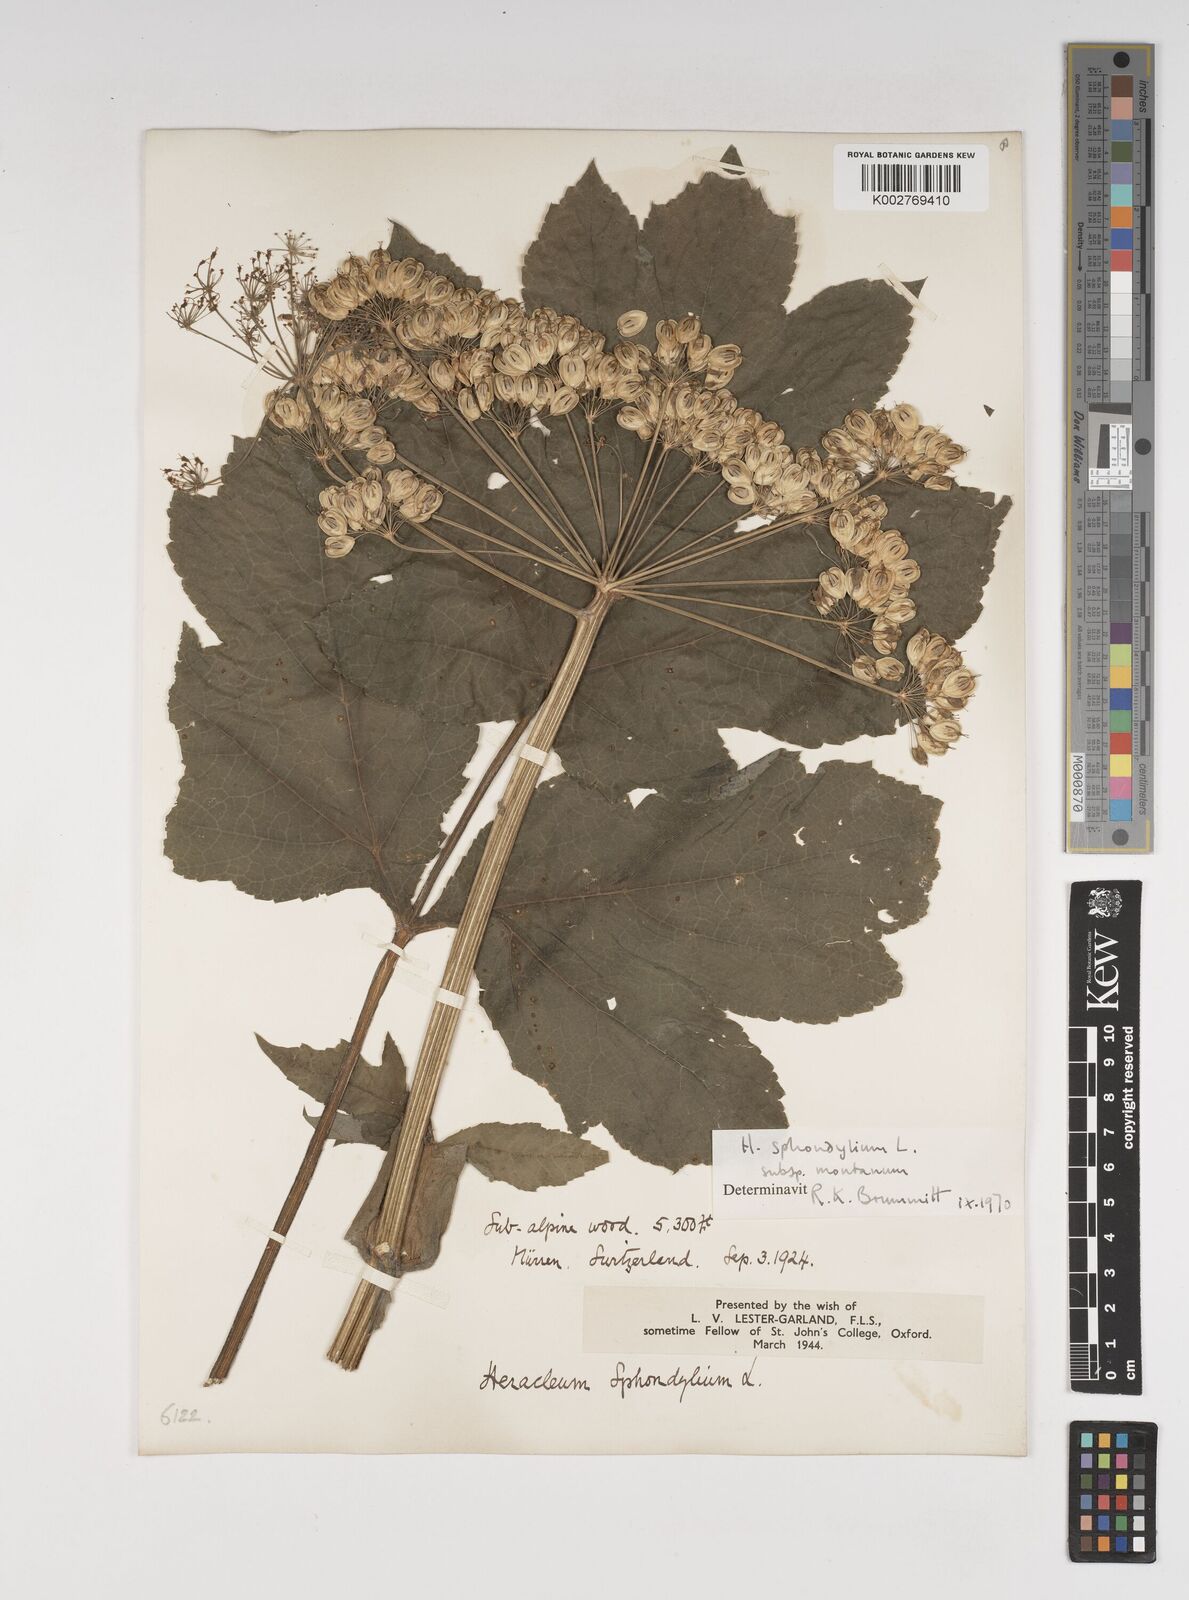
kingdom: Plantae
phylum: Tracheophyta
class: Magnoliopsida
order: Apiales
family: Apiaceae
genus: Heracleum
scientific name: Heracleum sphondylium
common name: Hogweed
